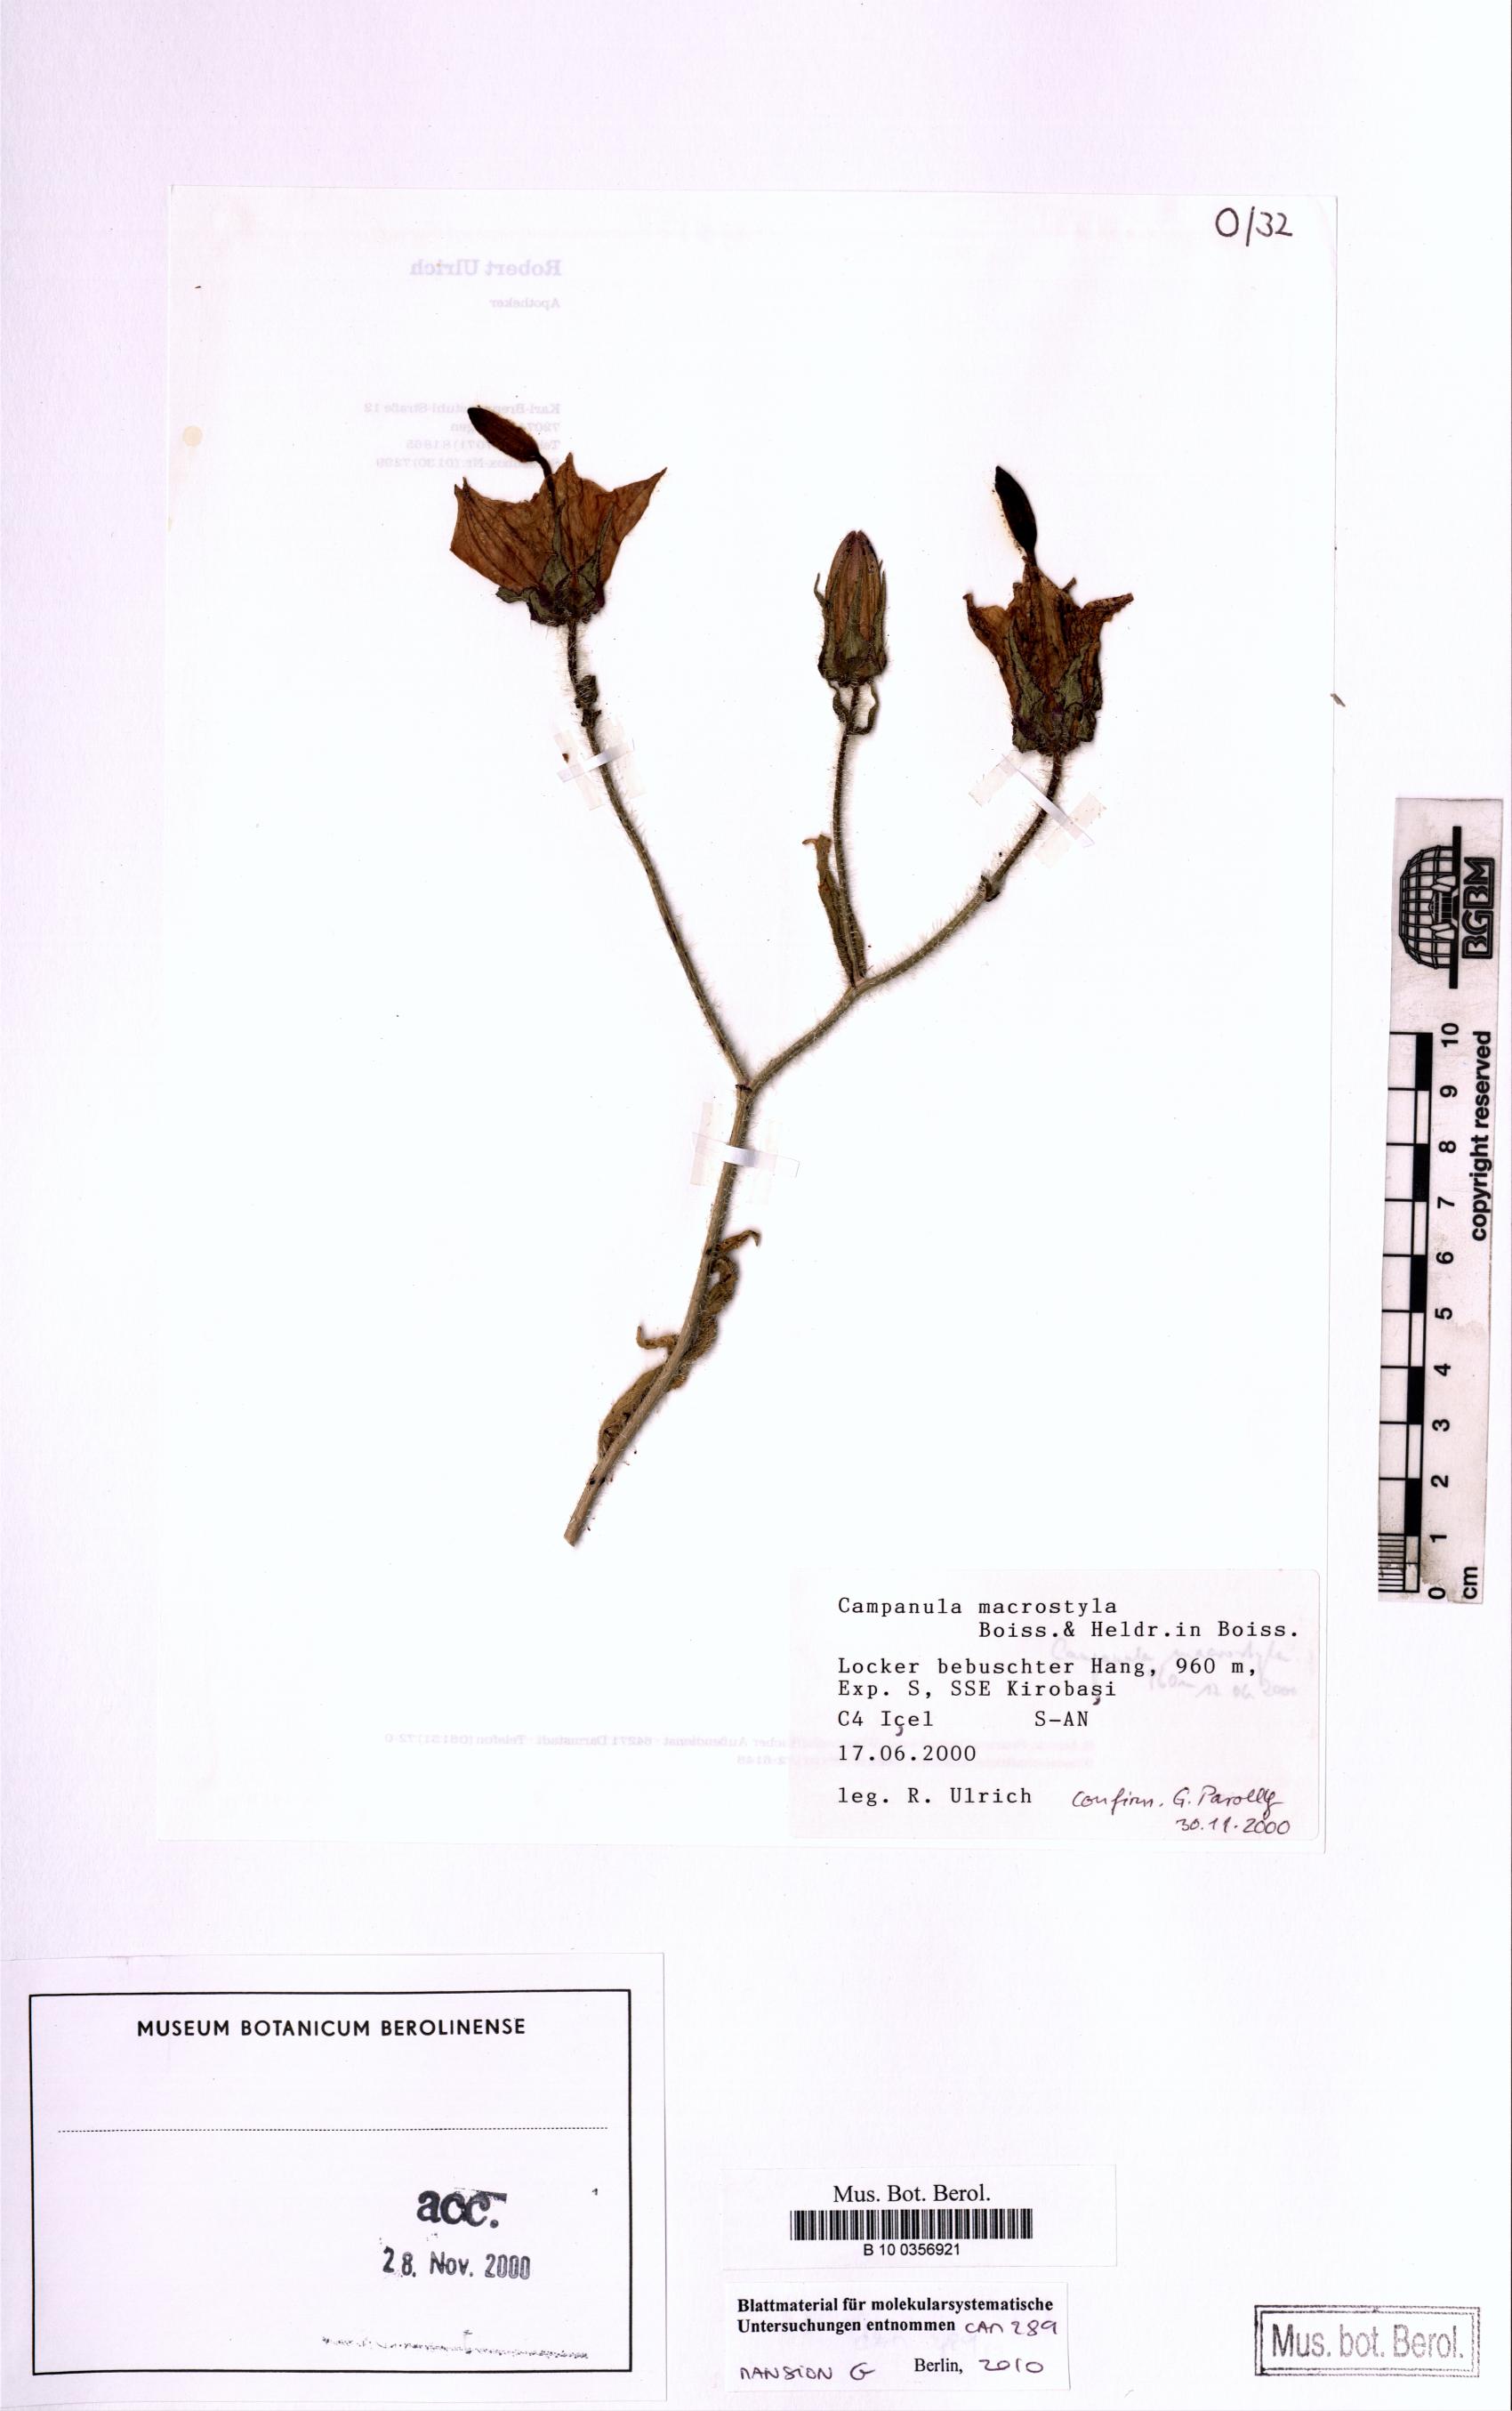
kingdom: Plantae
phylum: Tracheophyta
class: Magnoliopsida
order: Asterales
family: Campanulaceae
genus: Campanula
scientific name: Campanula macrostyla
